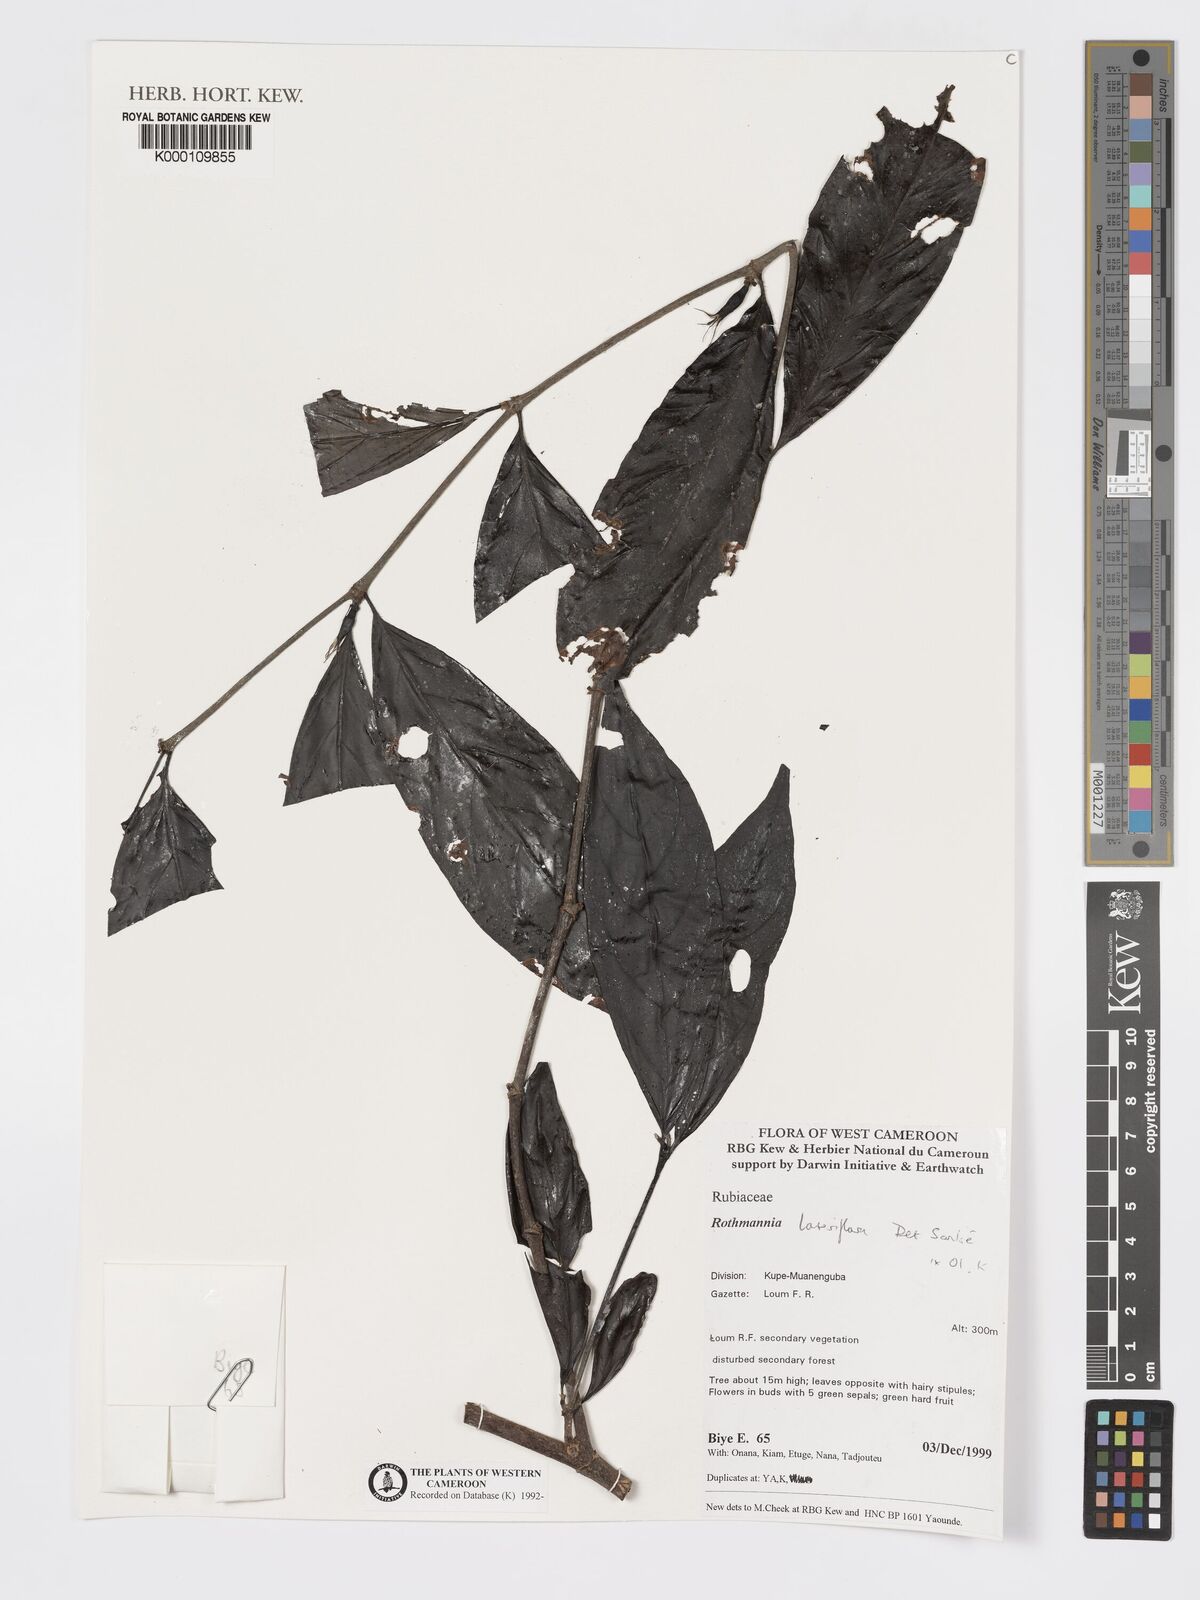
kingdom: Plantae
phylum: Tracheophyta
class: Magnoliopsida
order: Gentianales
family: Rubiaceae
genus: Rothmannia
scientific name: Rothmannia lateriflora
